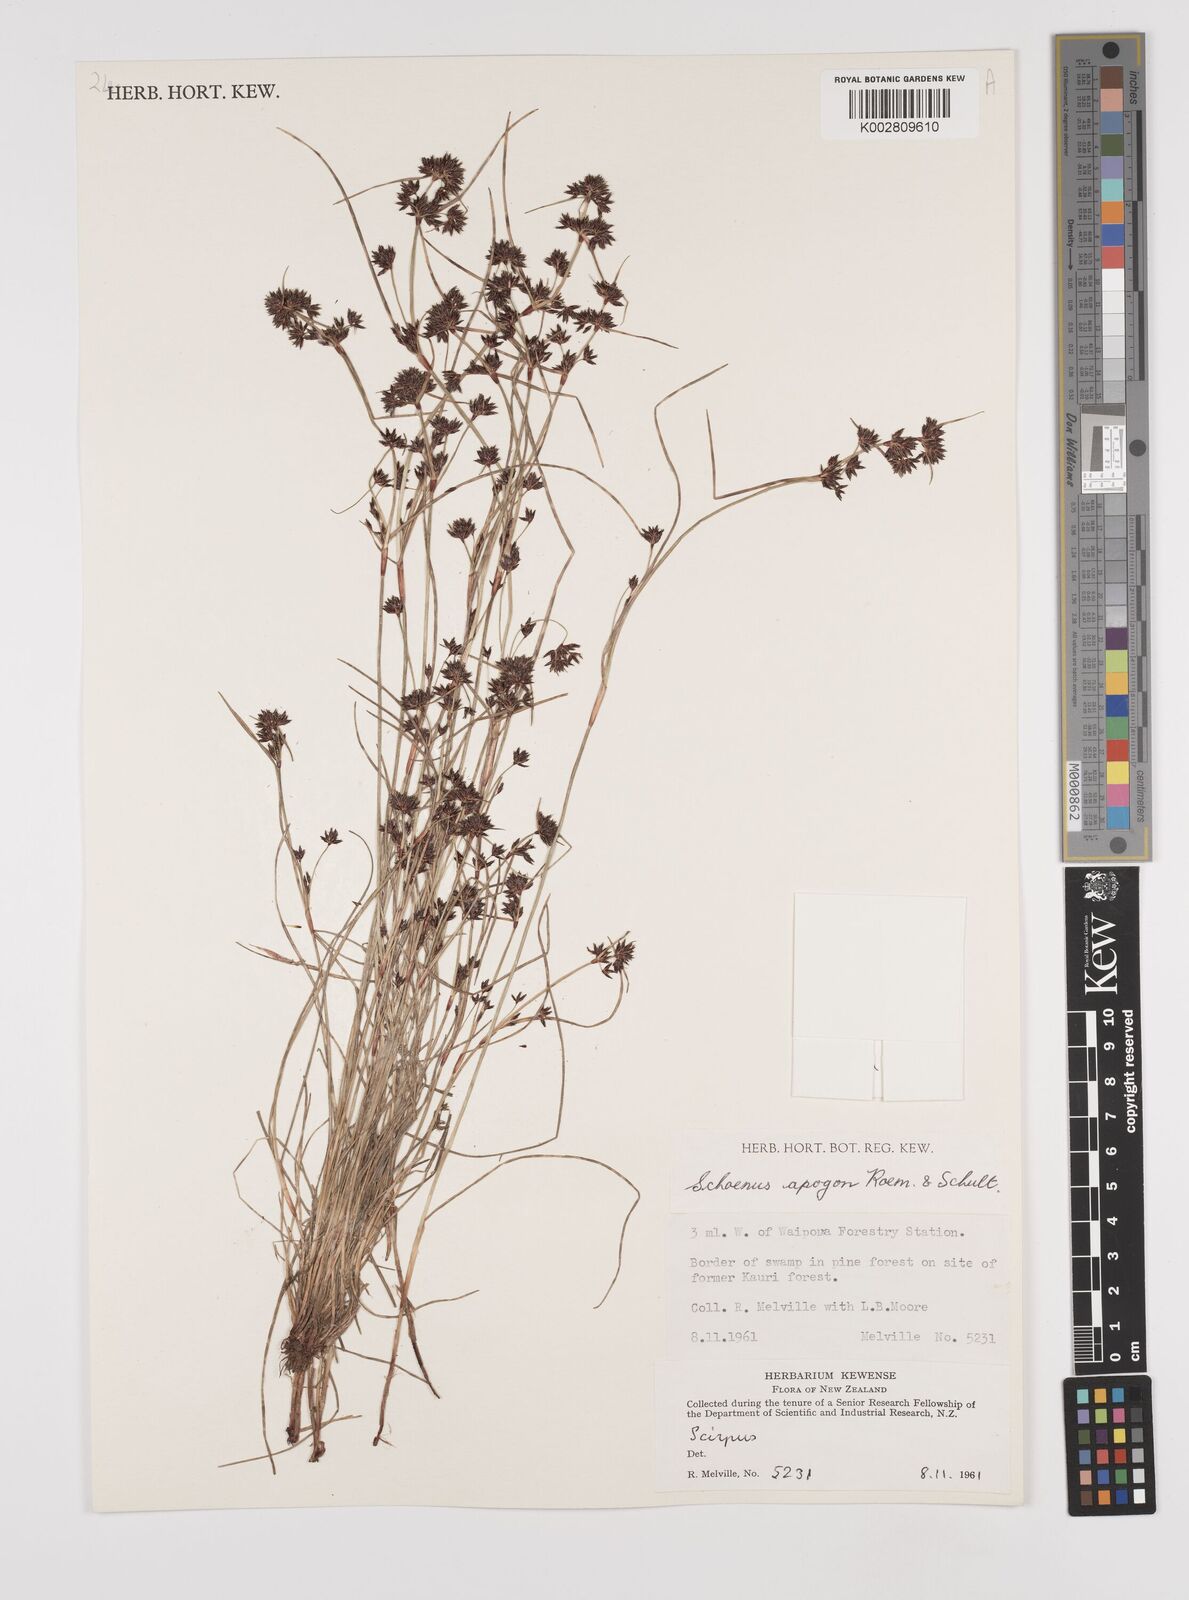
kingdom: Plantae
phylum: Tracheophyta
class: Liliopsida
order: Poales
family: Cyperaceae
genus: Schoenus
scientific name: Schoenus apogon
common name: Smooth bogrush
